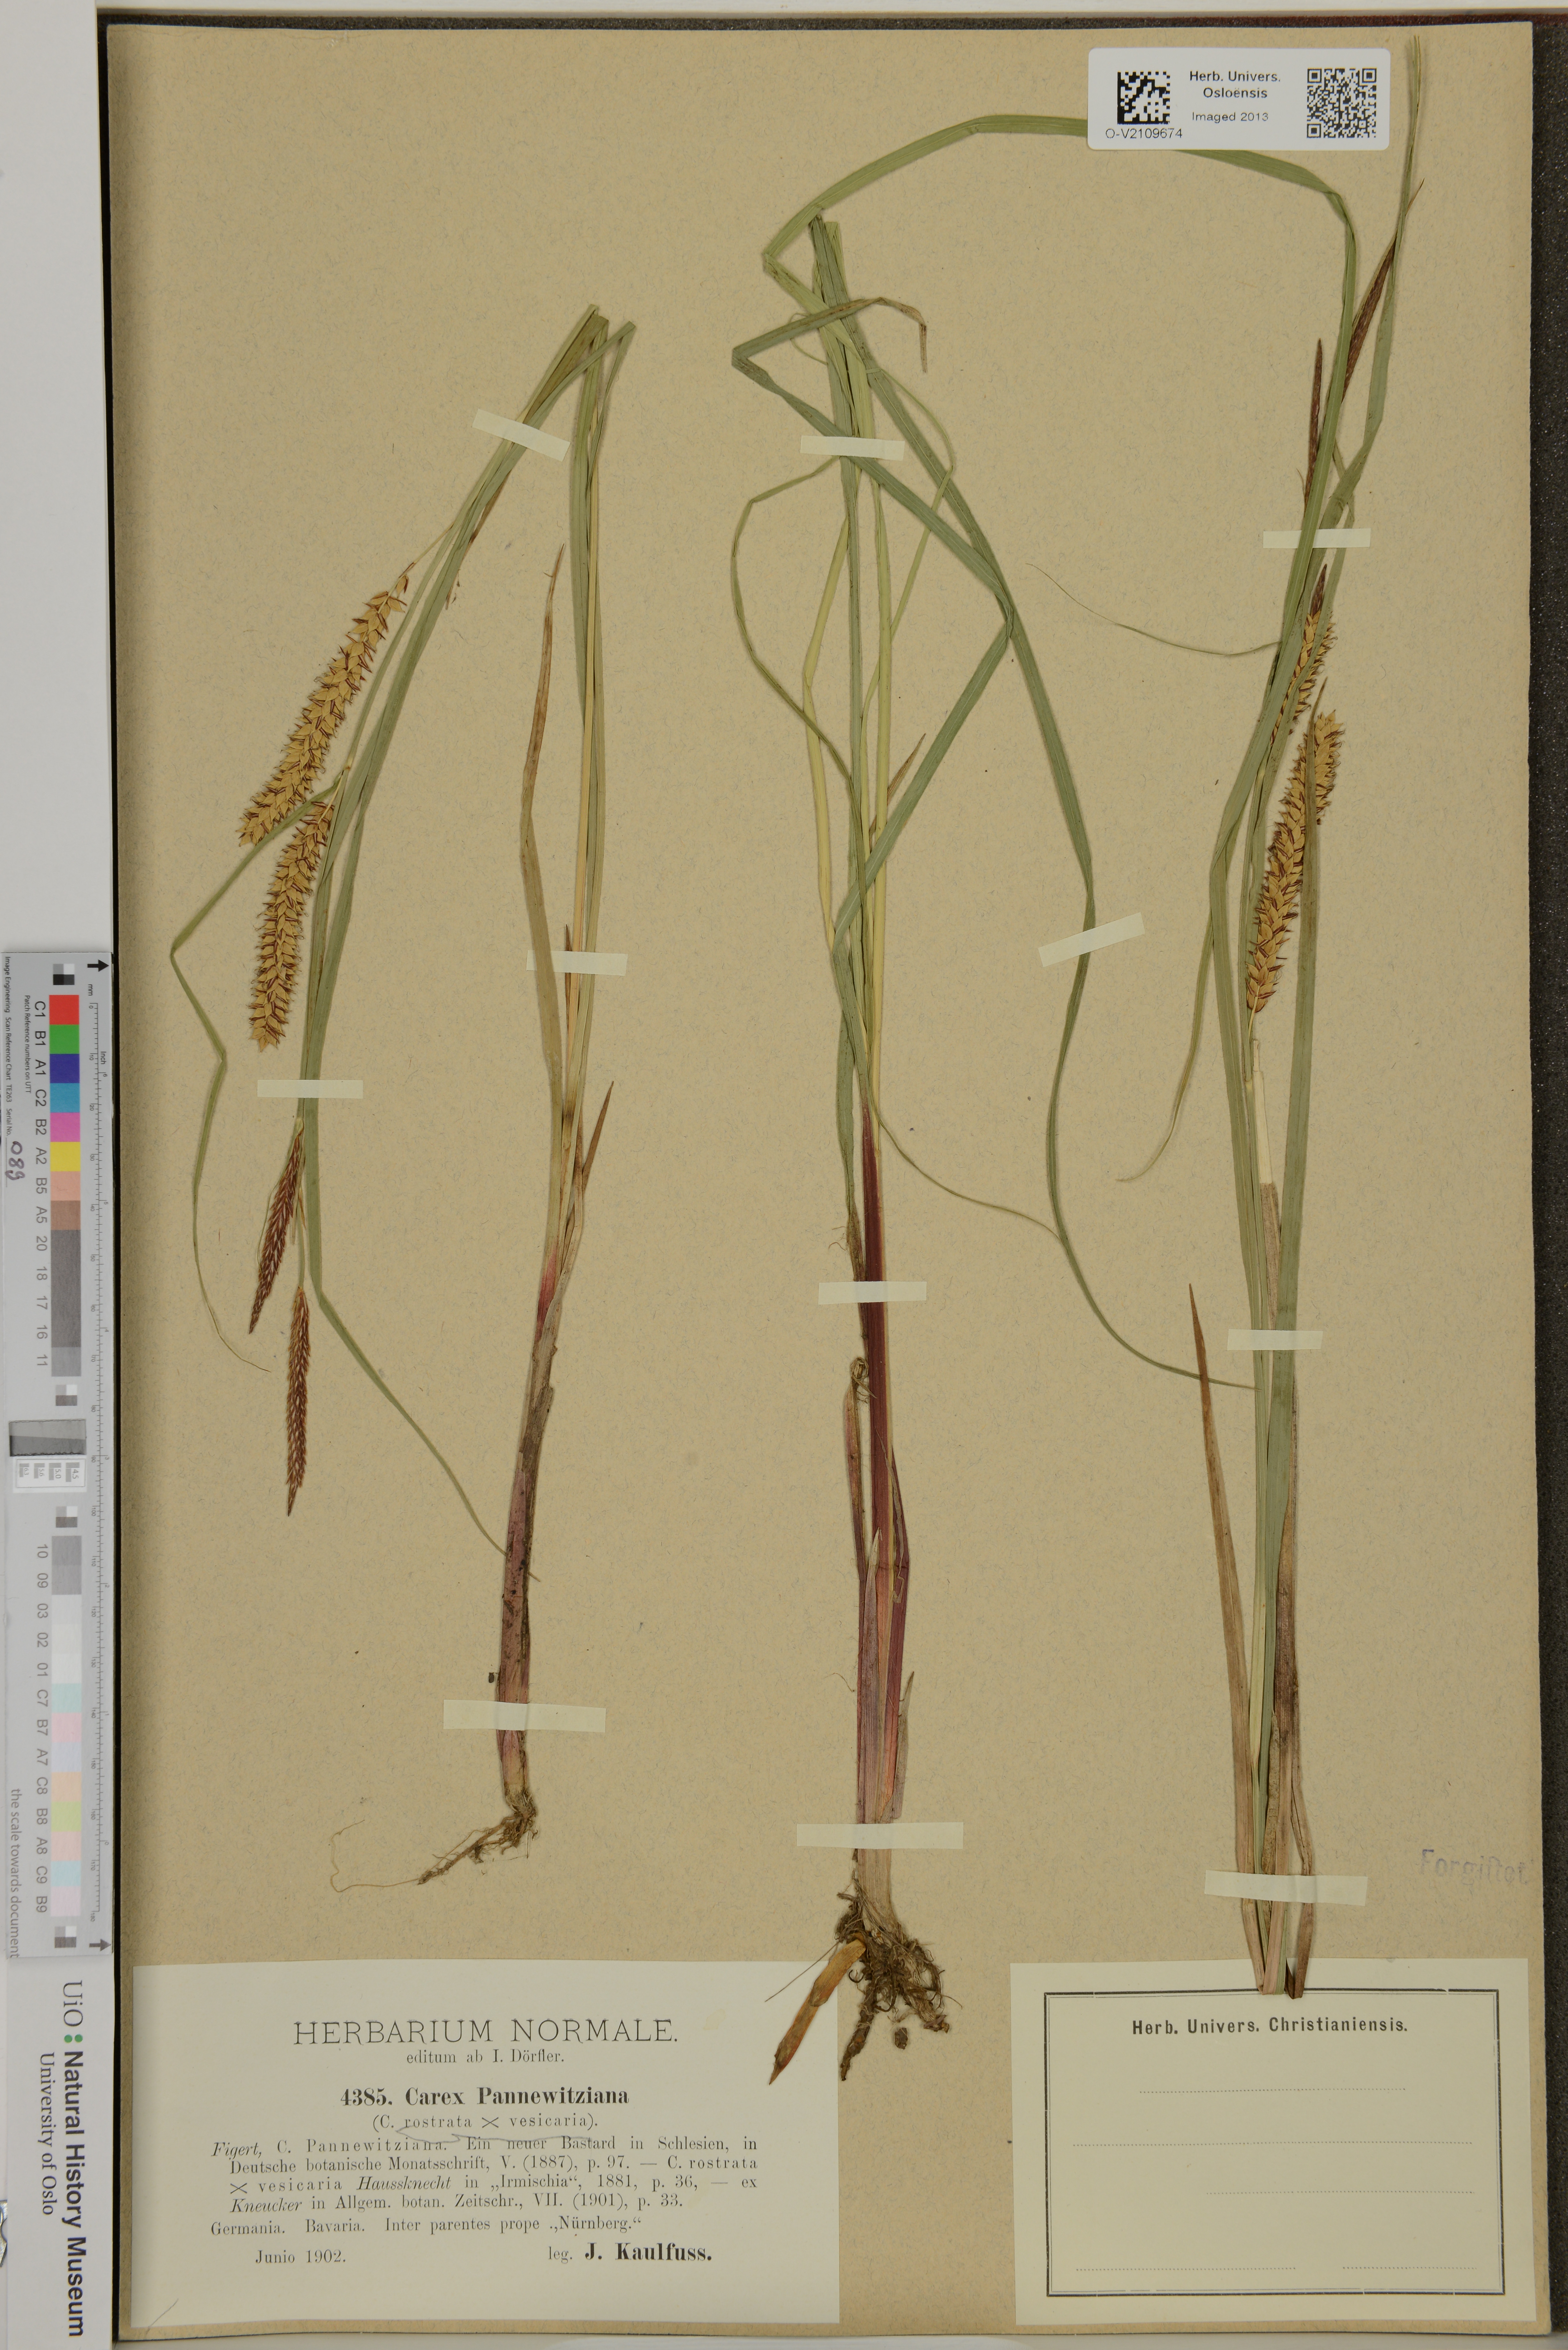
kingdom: Plantae
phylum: Tracheophyta
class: Liliopsida
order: Poales
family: Cyperaceae
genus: Carex
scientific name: Carex involuta
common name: Pannewitz's sedge
